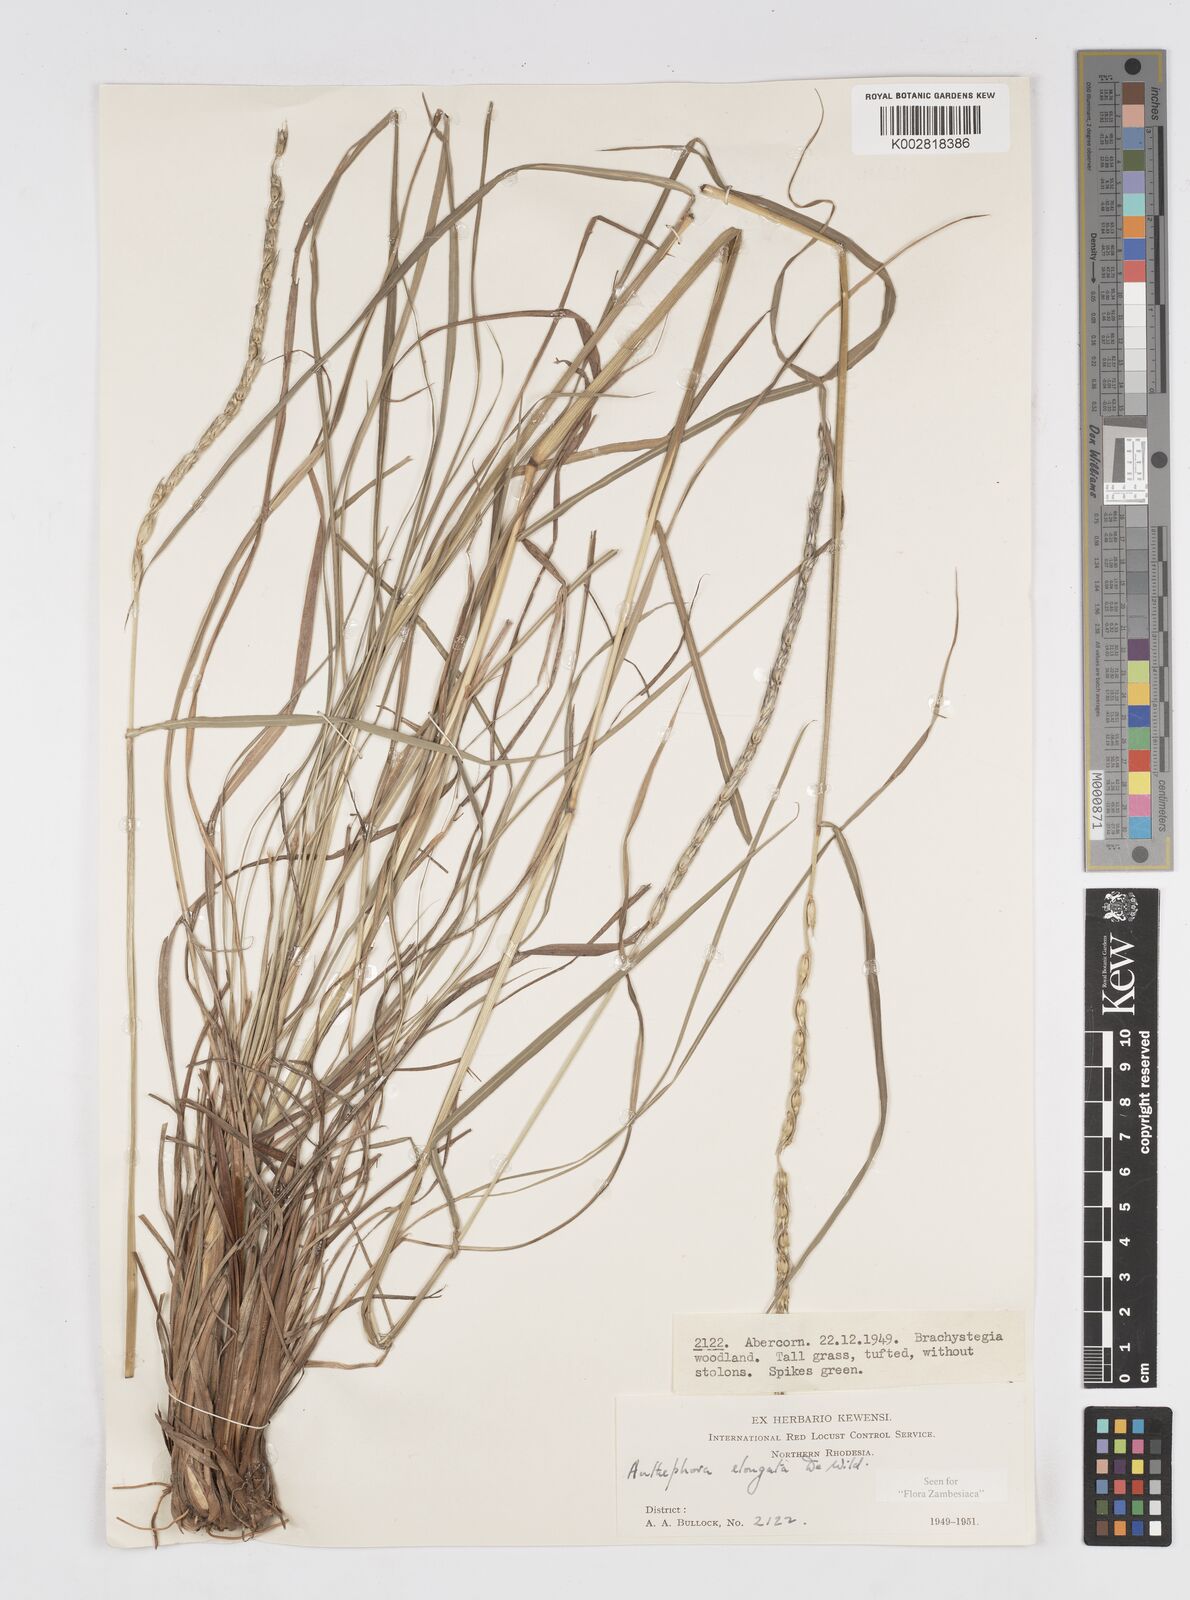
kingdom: Plantae
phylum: Tracheophyta
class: Liliopsida
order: Poales
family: Poaceae
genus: Anthephora
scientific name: Anthephora elongata
